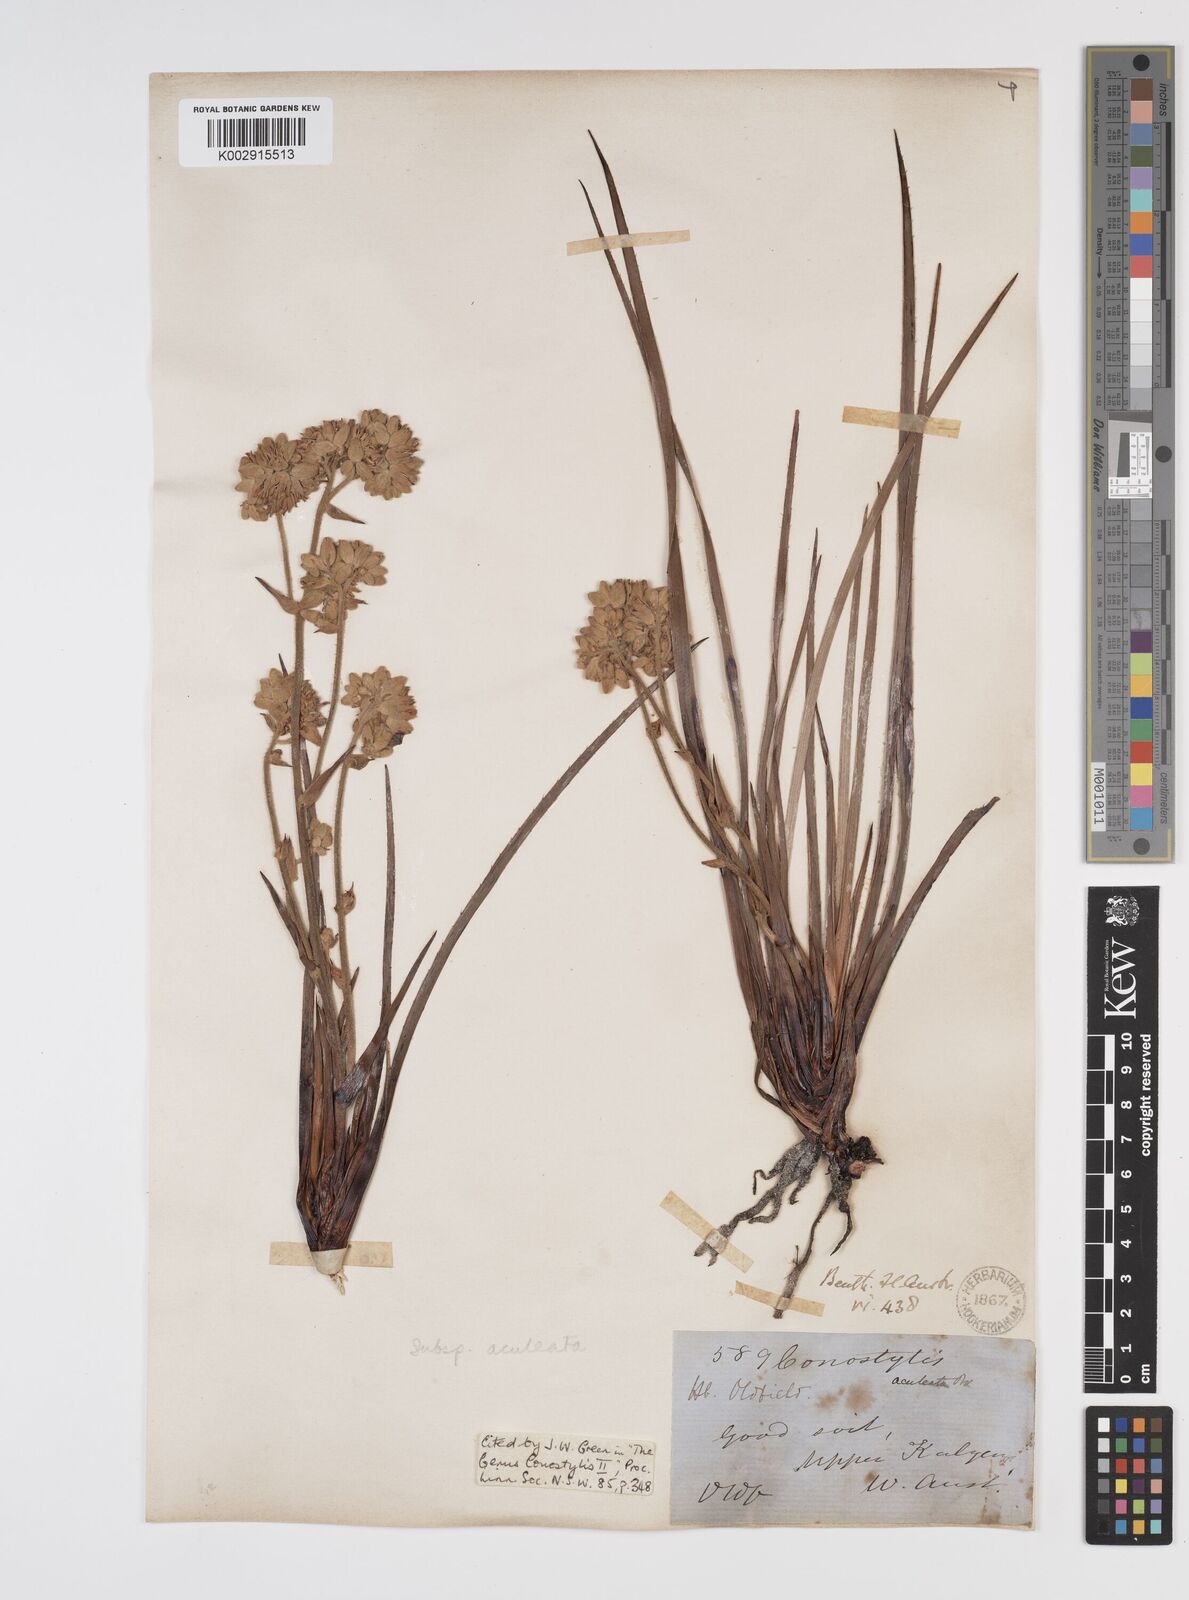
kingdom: Plantae
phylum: Tracheophyta
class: Liliopsida
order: Commelinales
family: Haemodoraceae
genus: Conostylis
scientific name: Conostylis aculeata
